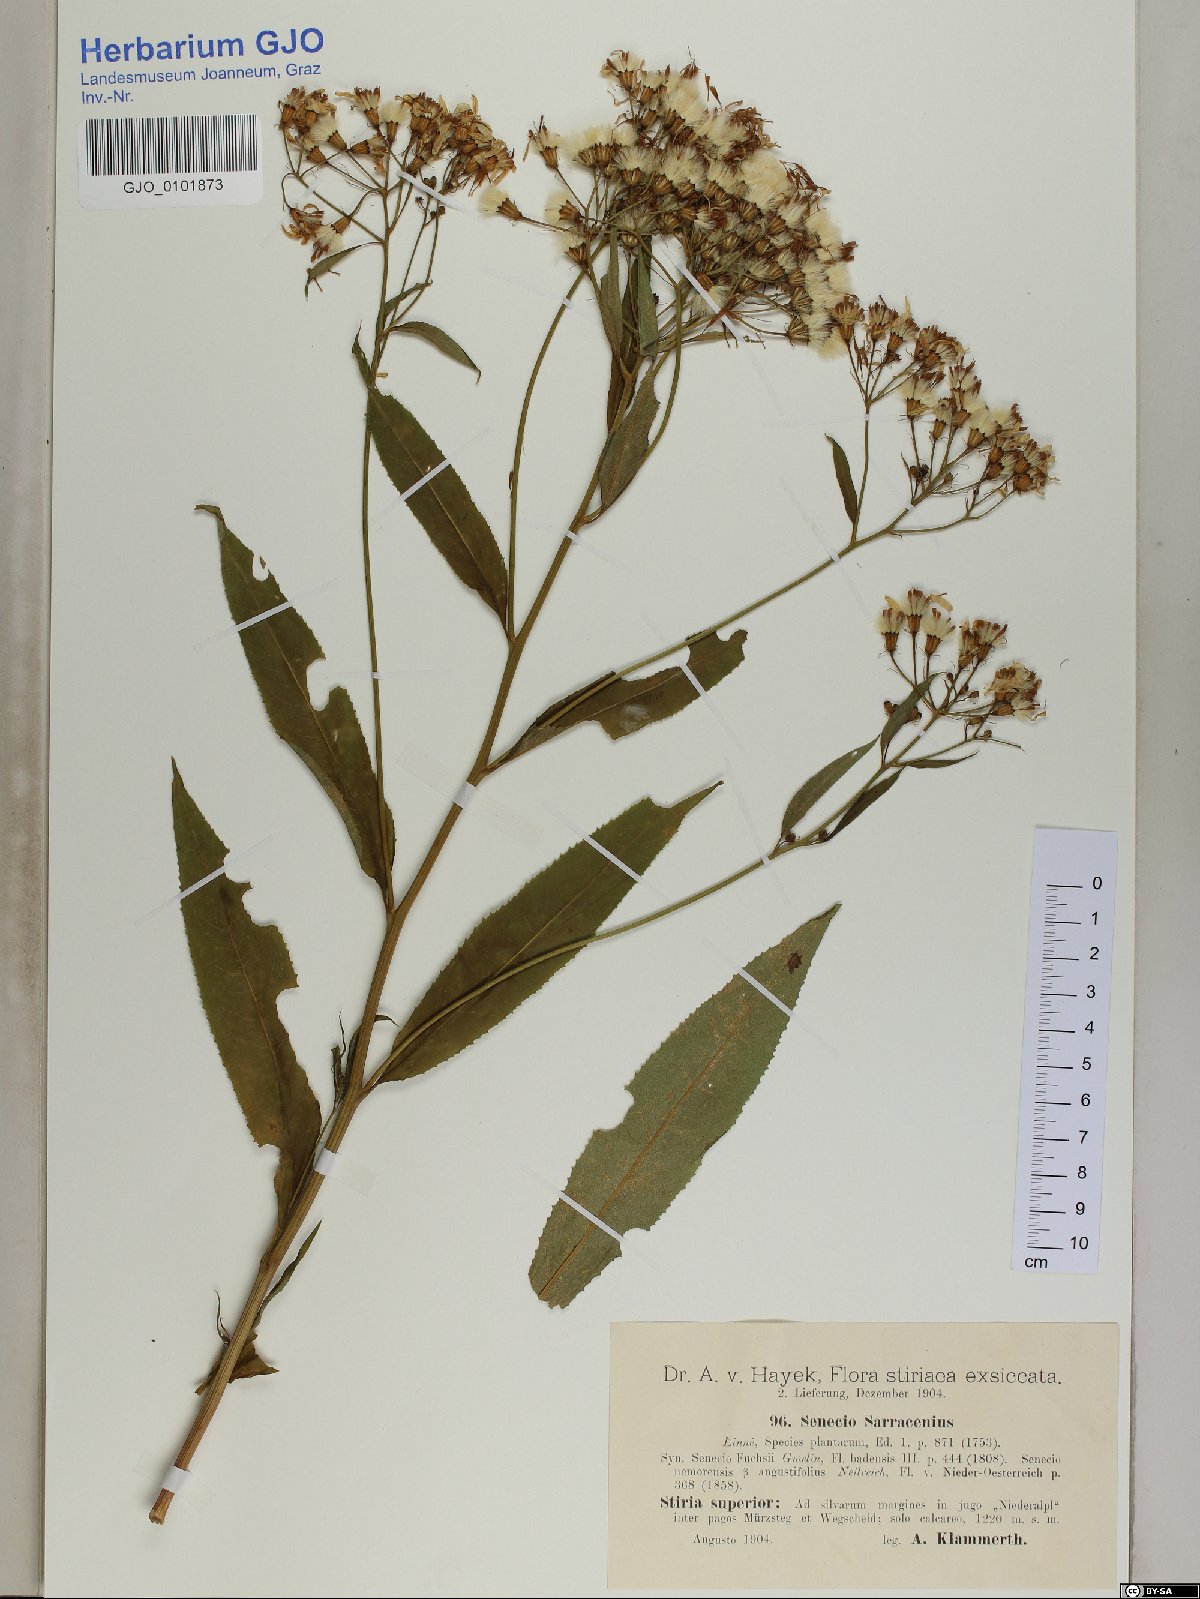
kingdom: Plantae
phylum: Tracheophyta
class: Magnoliopsida
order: Asterales
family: Asteraceae
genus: Senecio
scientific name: Senecio sarracenicus
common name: Broad-leaved ragwort
